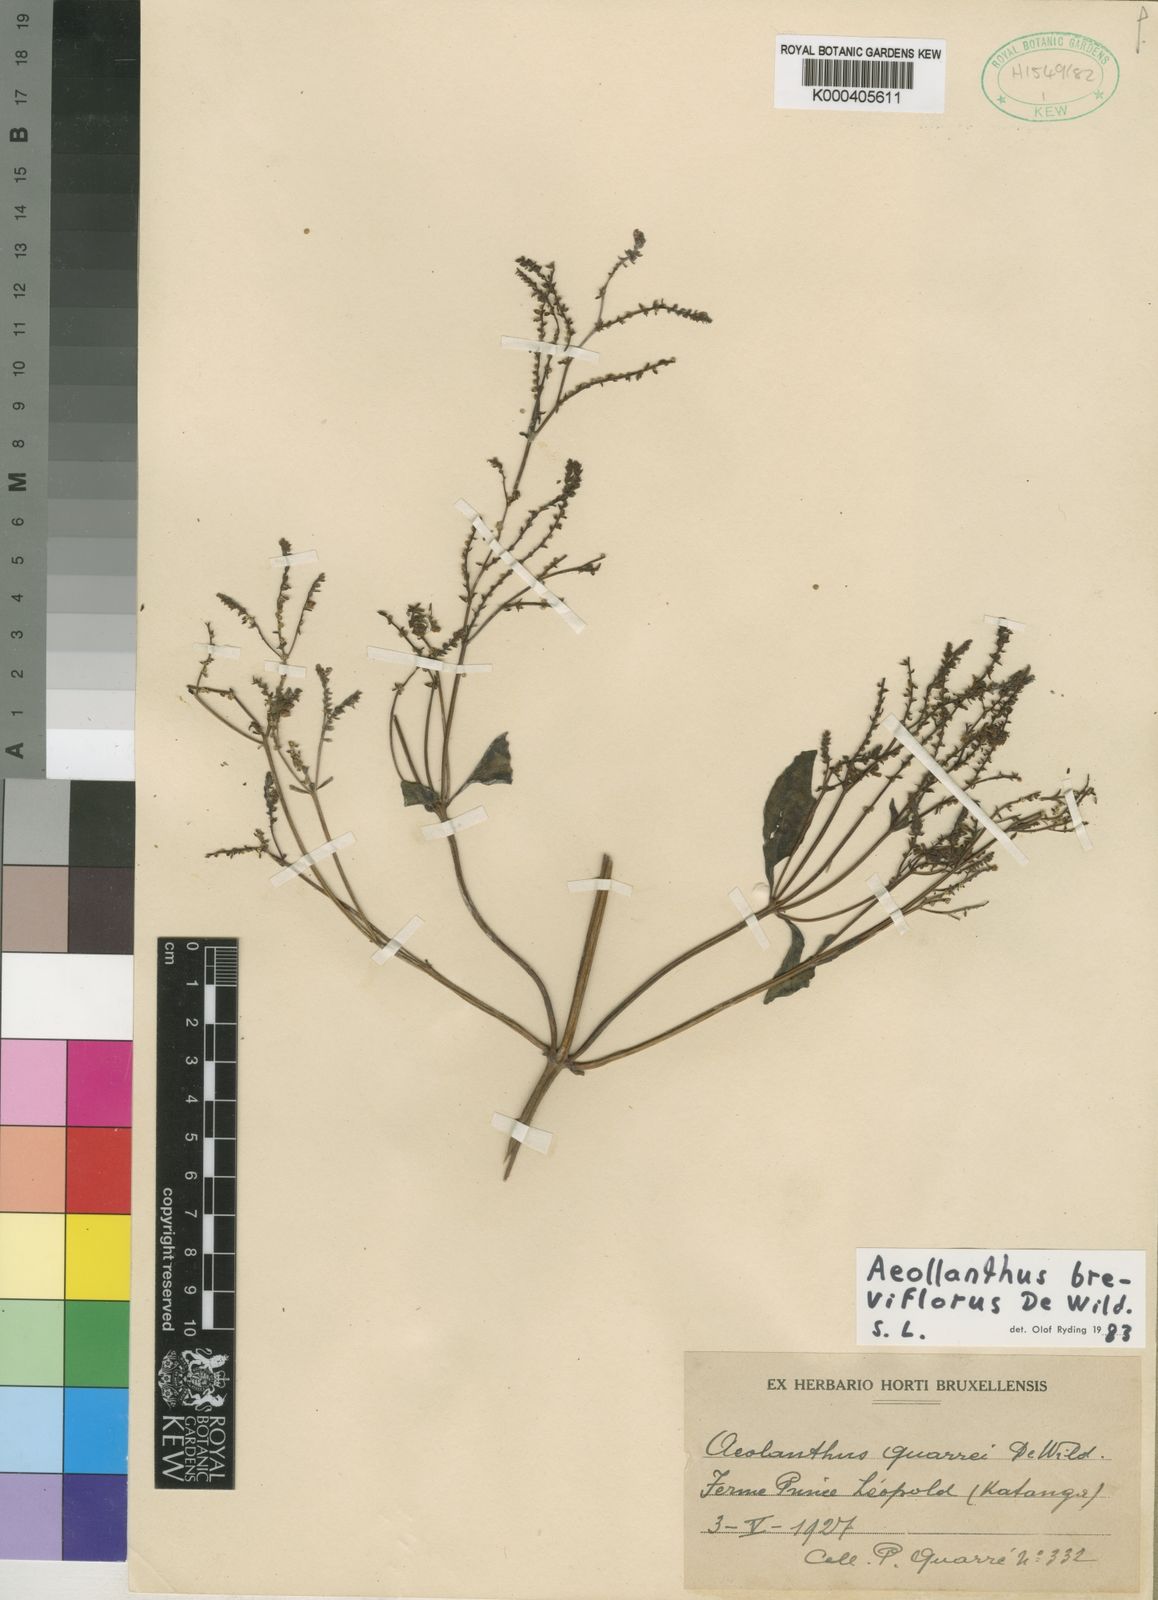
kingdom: Plantae
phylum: Tracheophyta
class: Magnoliopsida
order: Lamiales
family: Lamiaceae
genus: Aeollanthus
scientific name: Aeollanthus breviflorus
